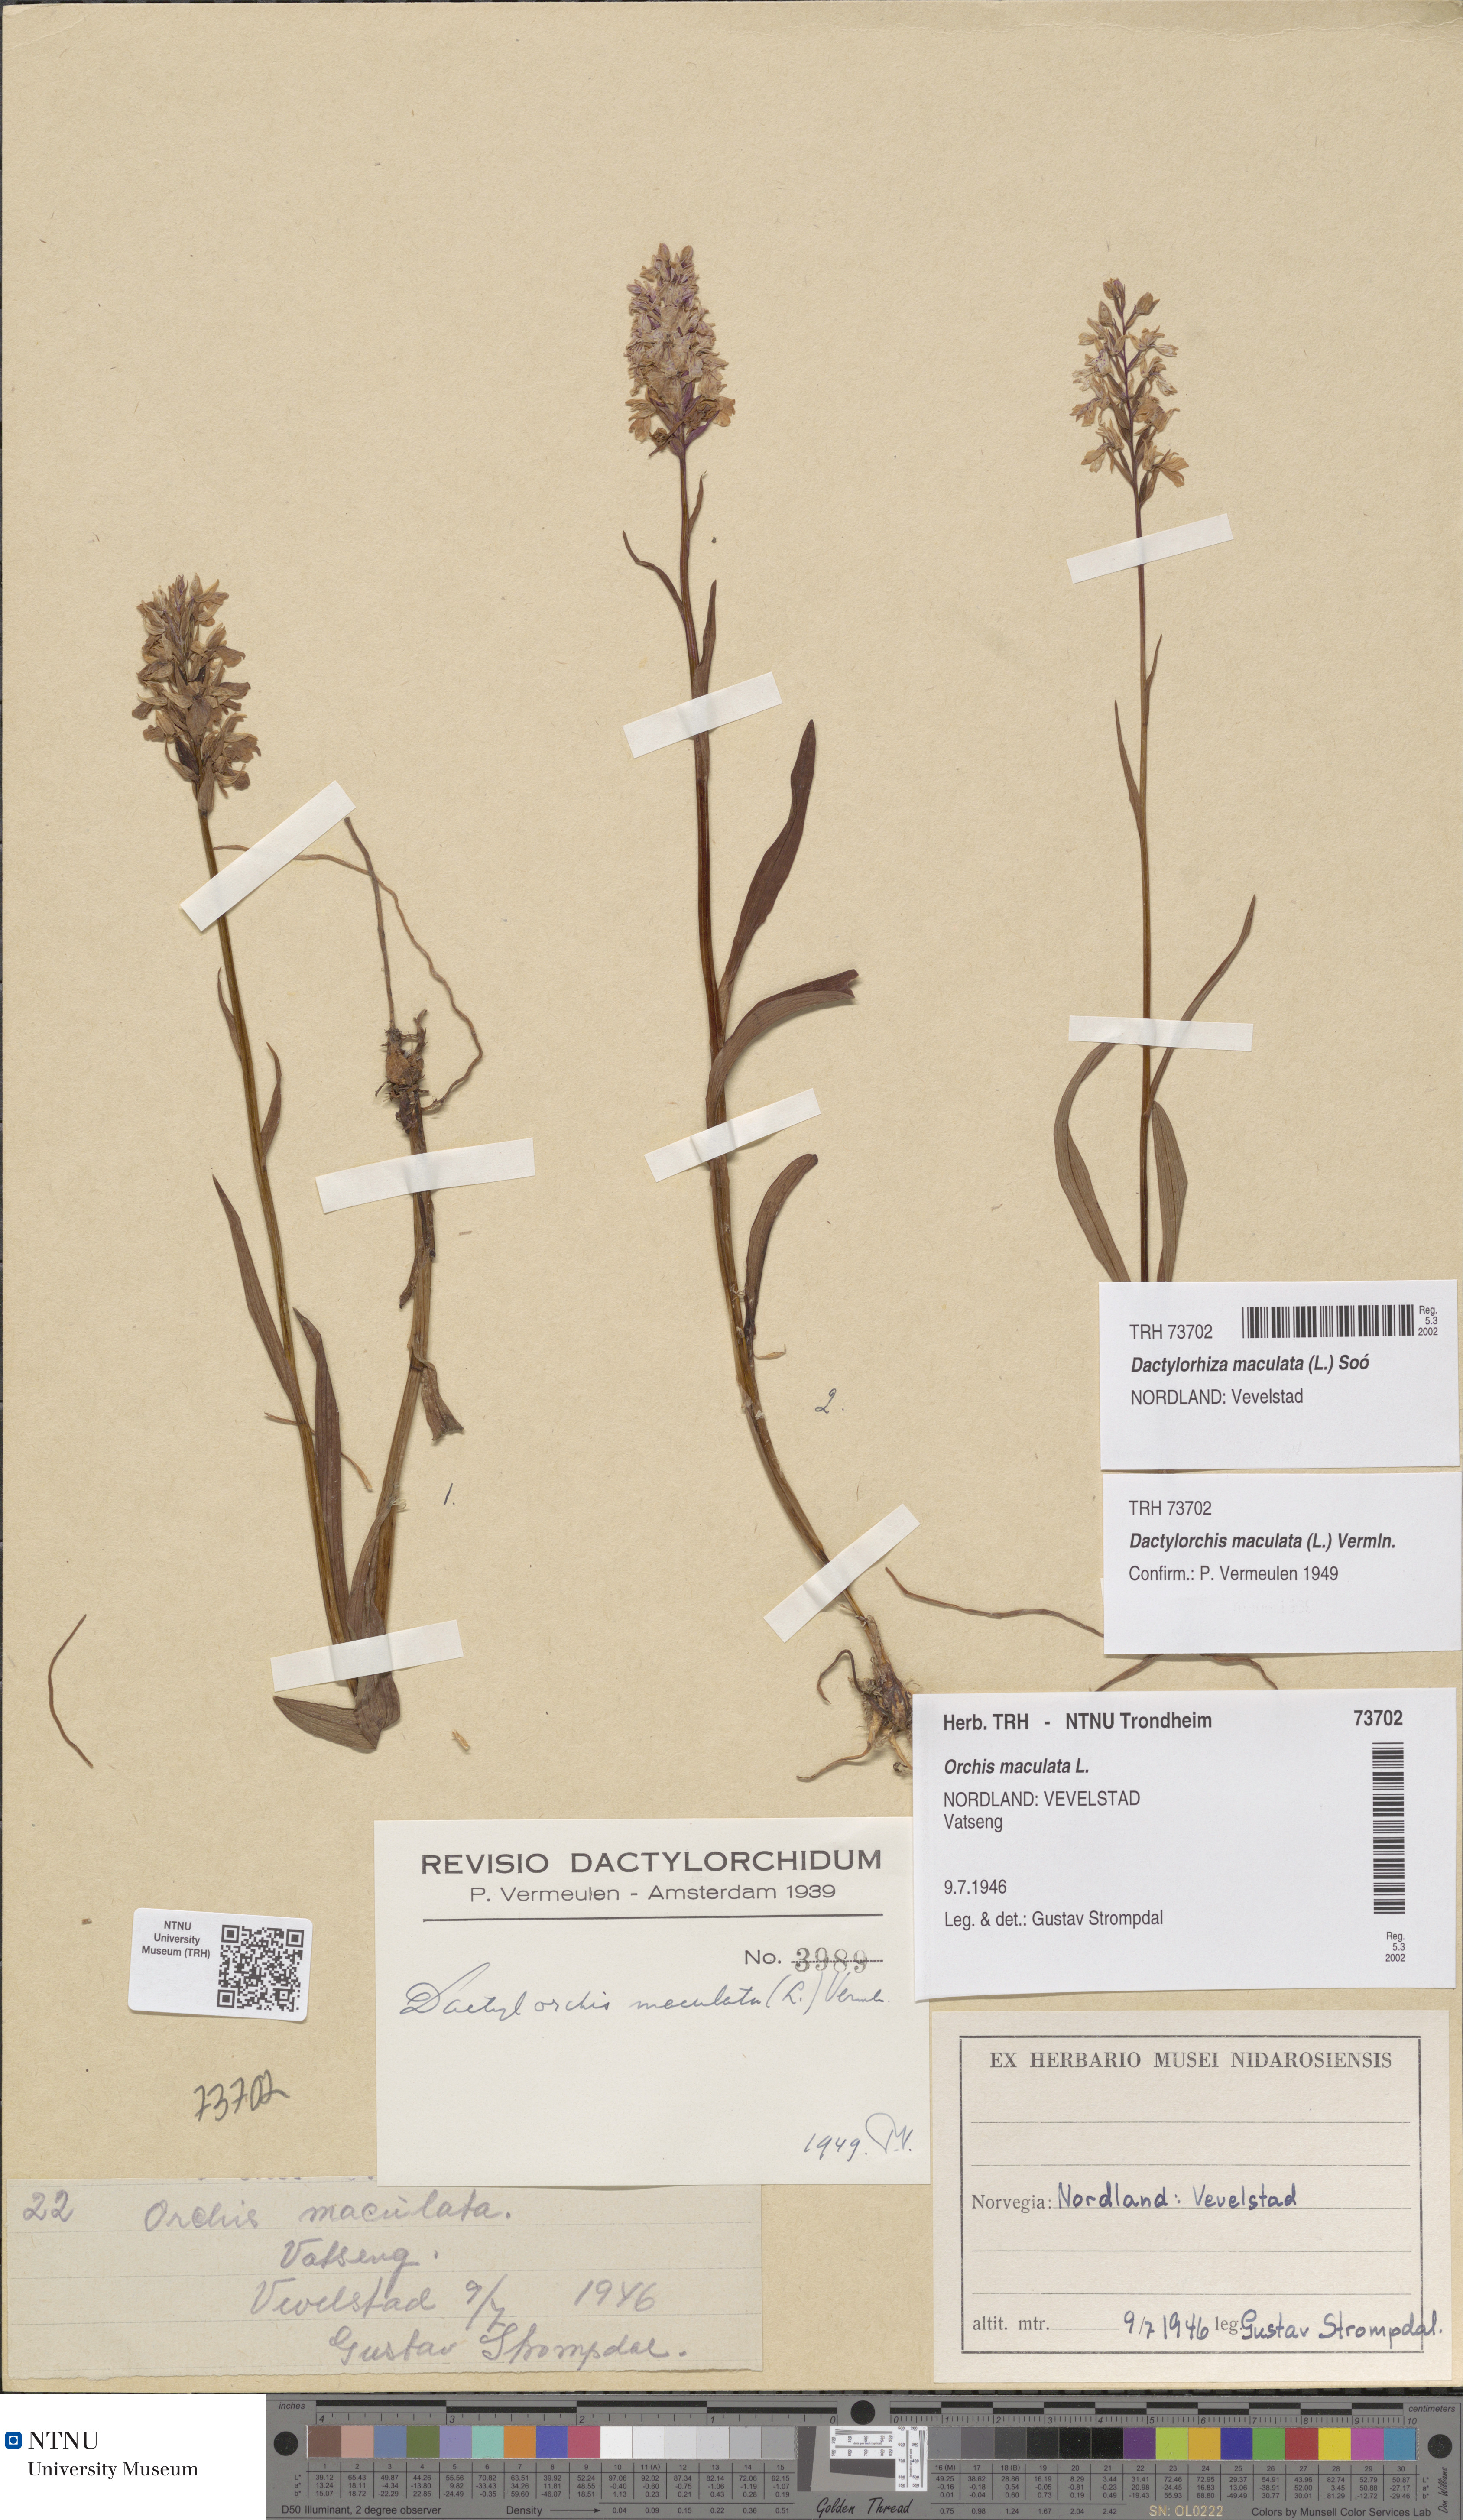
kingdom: Plantae
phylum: Tracheophyta
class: Liliopsida
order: Asparagales
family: Orchidaceae
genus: Dactylorhiza
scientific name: Dactylorhiza maculata
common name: Heath spotted-orchid
